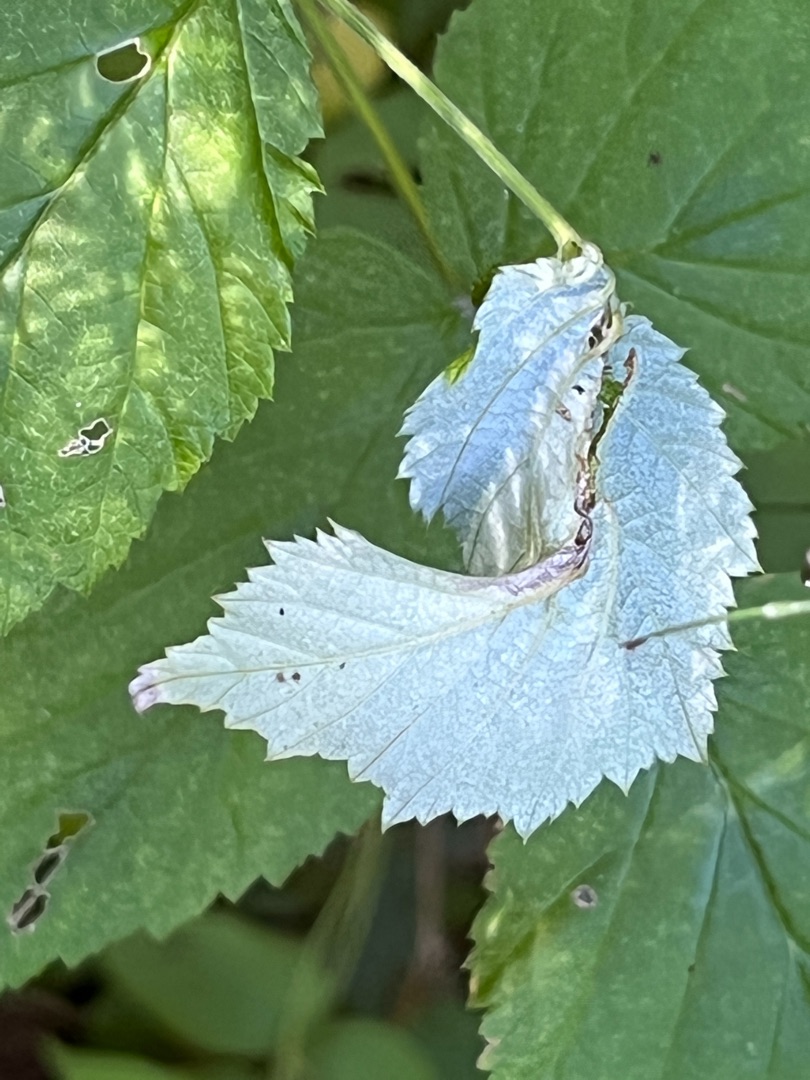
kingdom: Animalia
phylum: Arthropoda
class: Insecta
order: Diptera
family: Cecidomyiidae
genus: Dasineura
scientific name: Dasineura plicatrix
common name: Brombærbladgalmyg
